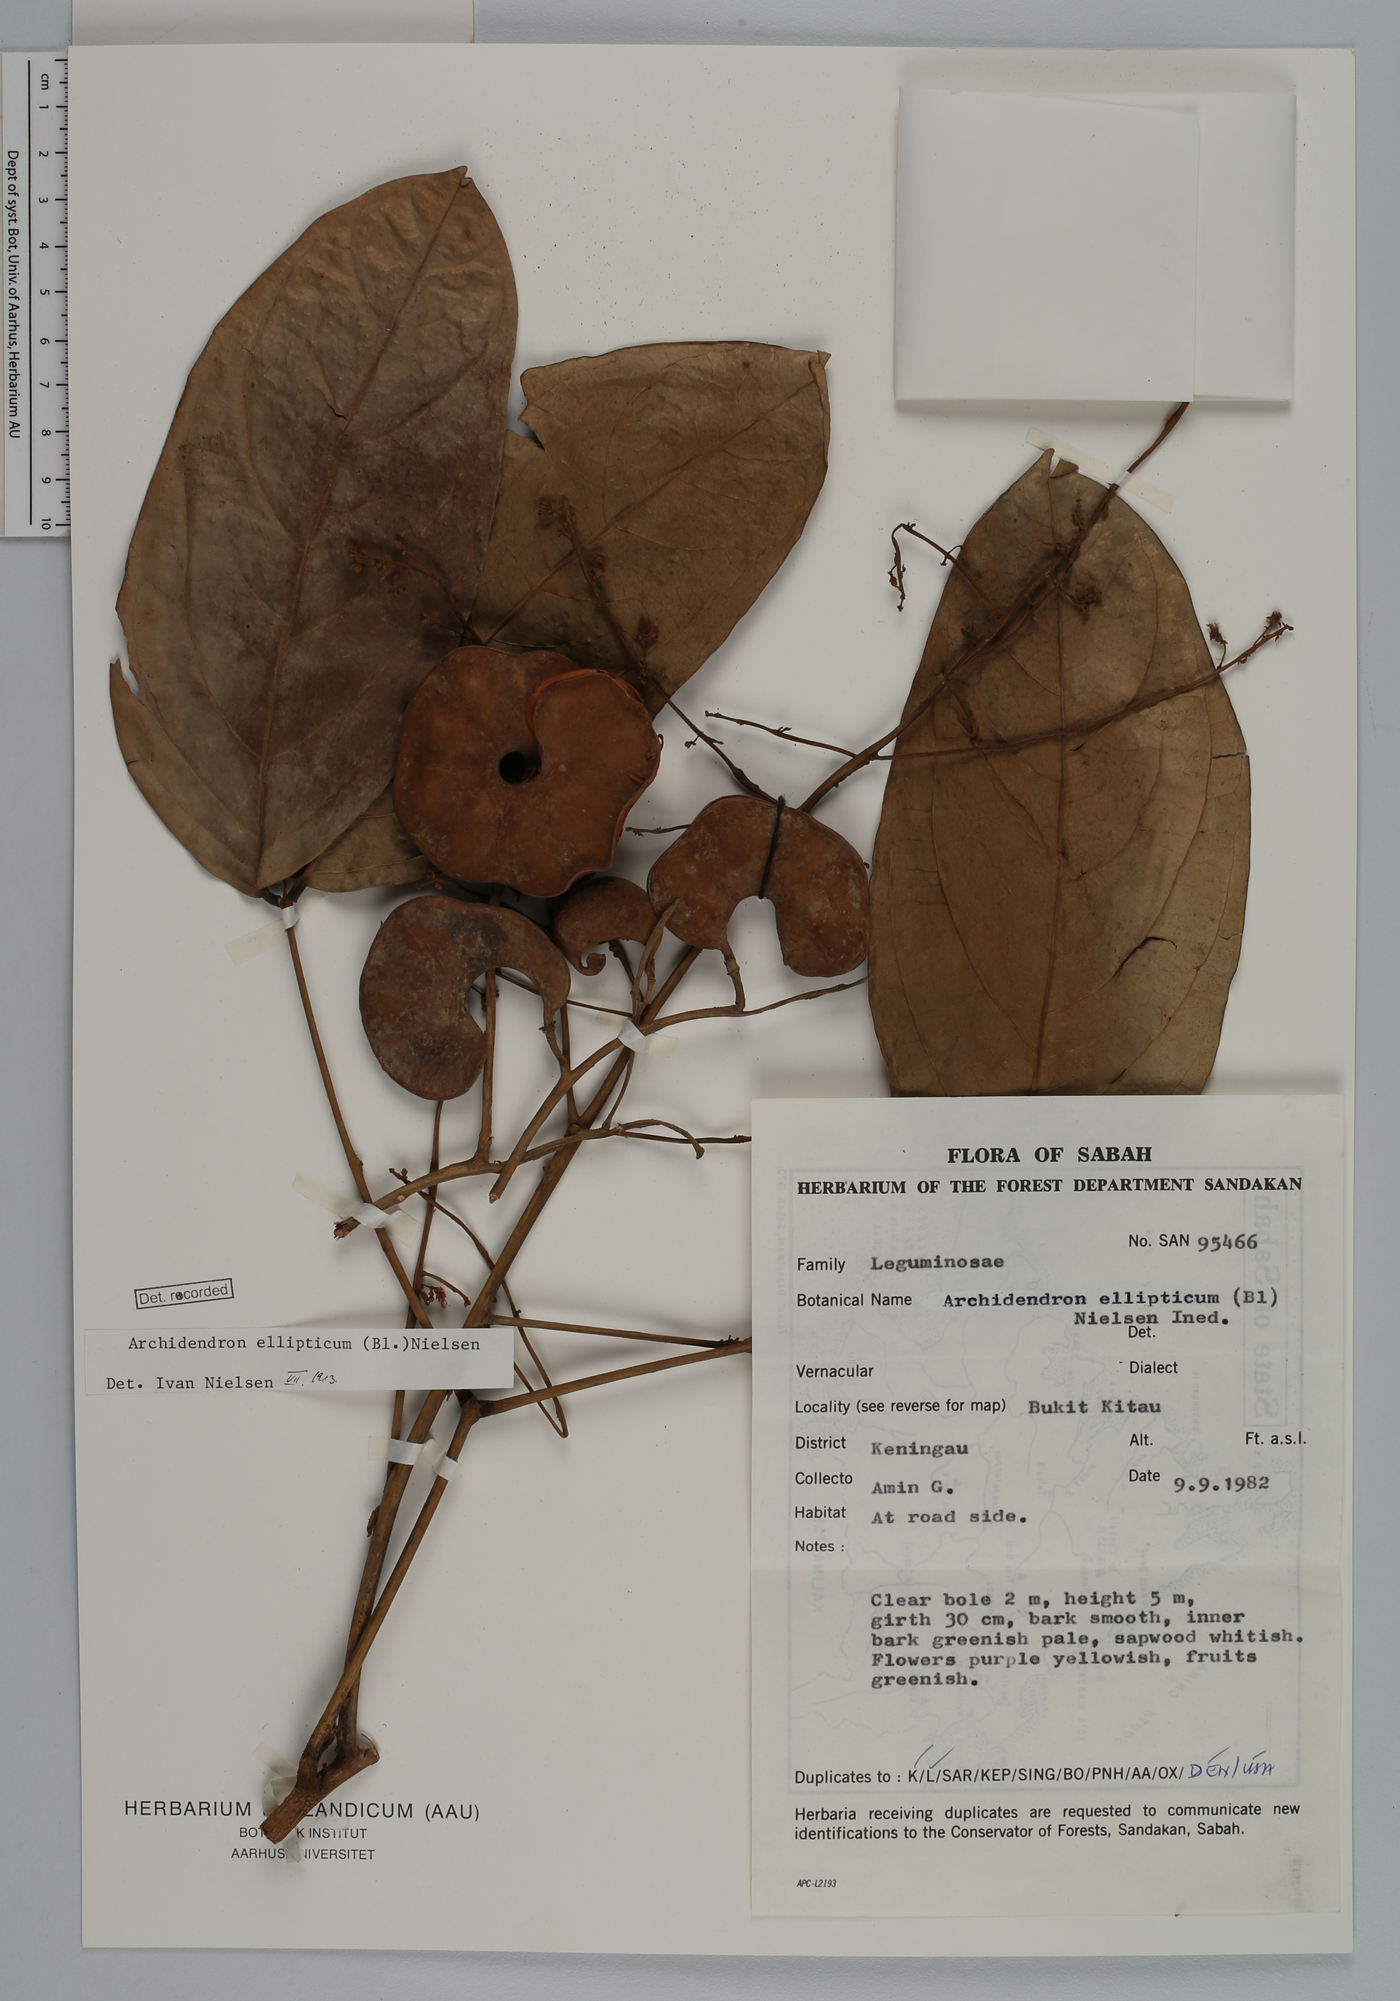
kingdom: Plantae
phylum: Tracheophyta
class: Magnoliopsida
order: Fabales
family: Fabaceae
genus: Archidendron
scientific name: Archidendron ellipticum
